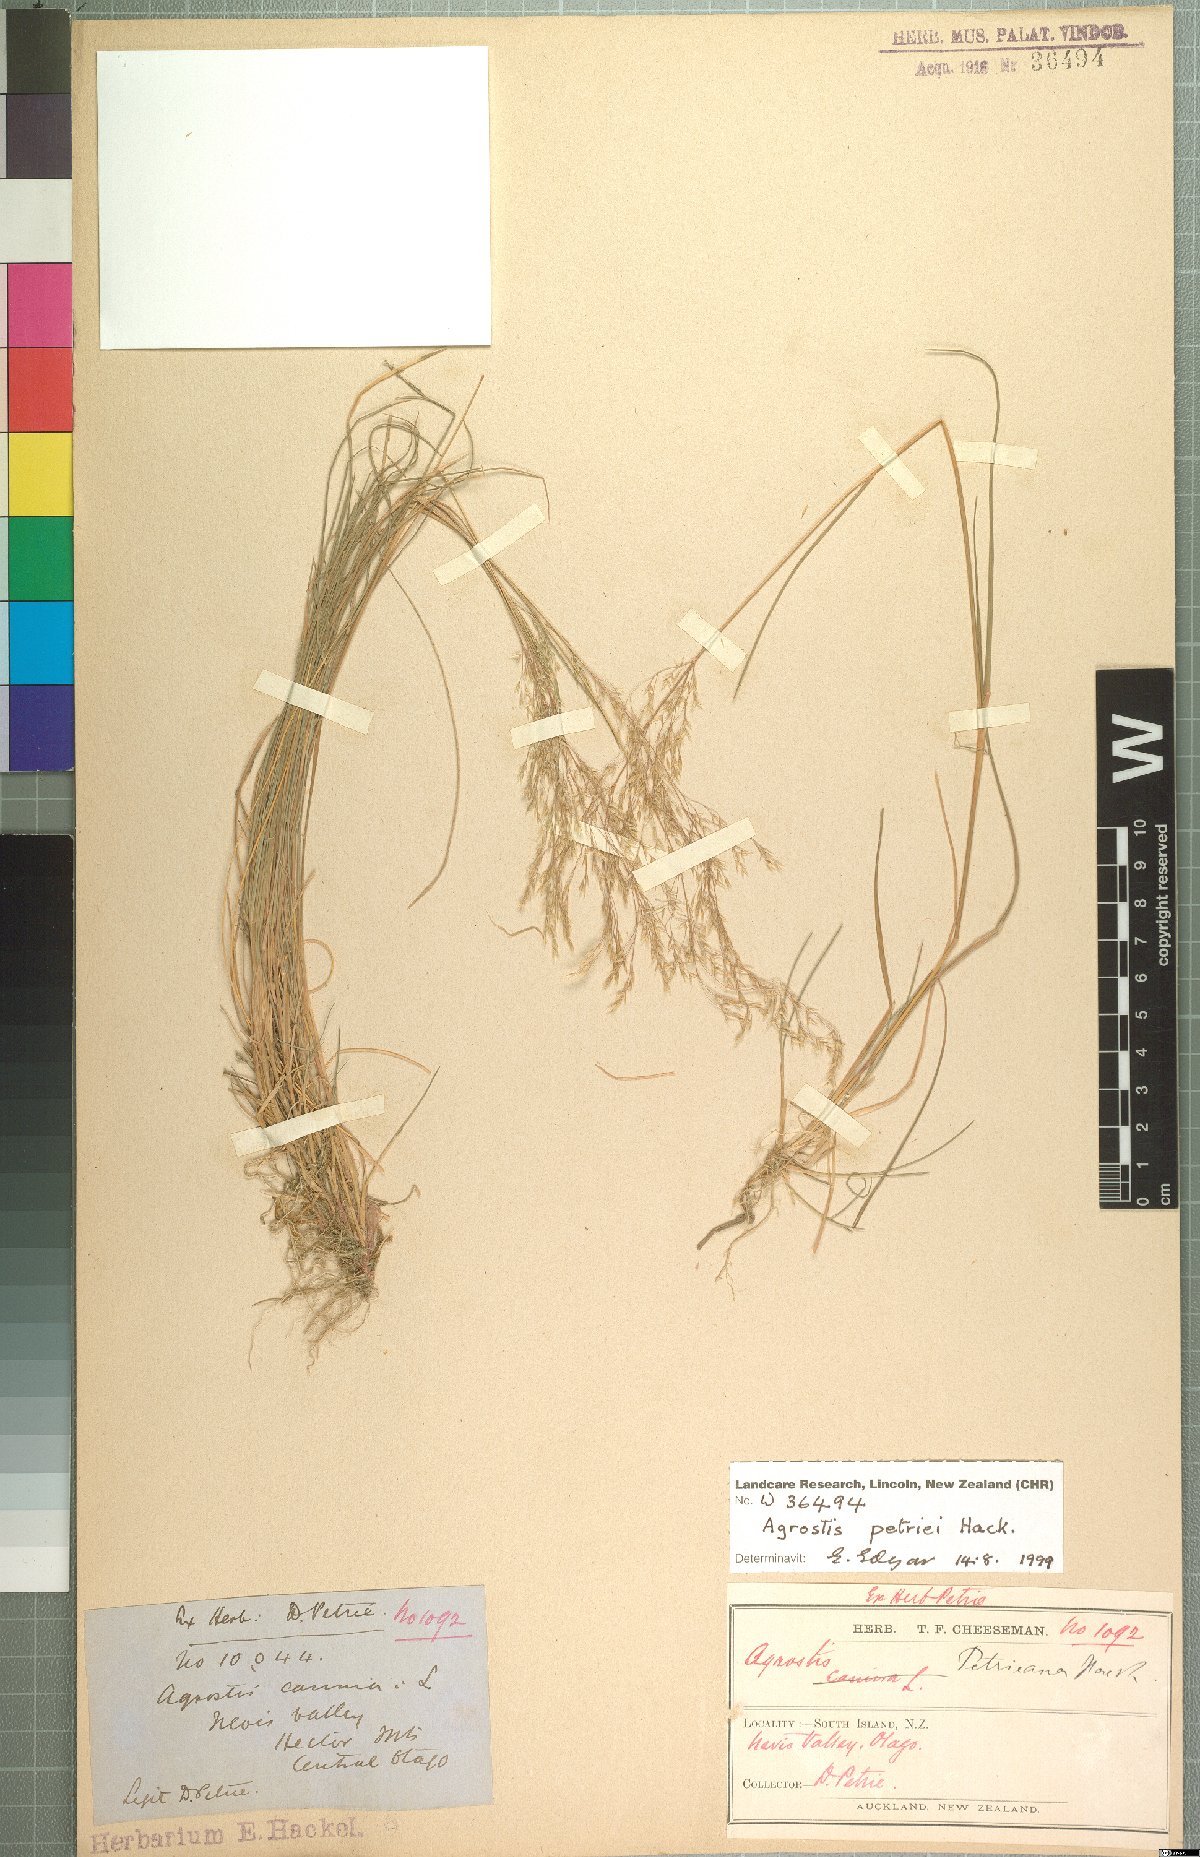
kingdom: Plantae
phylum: Tracheophyta
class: Liliopsida
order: Poales
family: Poaceae
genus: Agrostis
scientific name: Agrostis petriei
